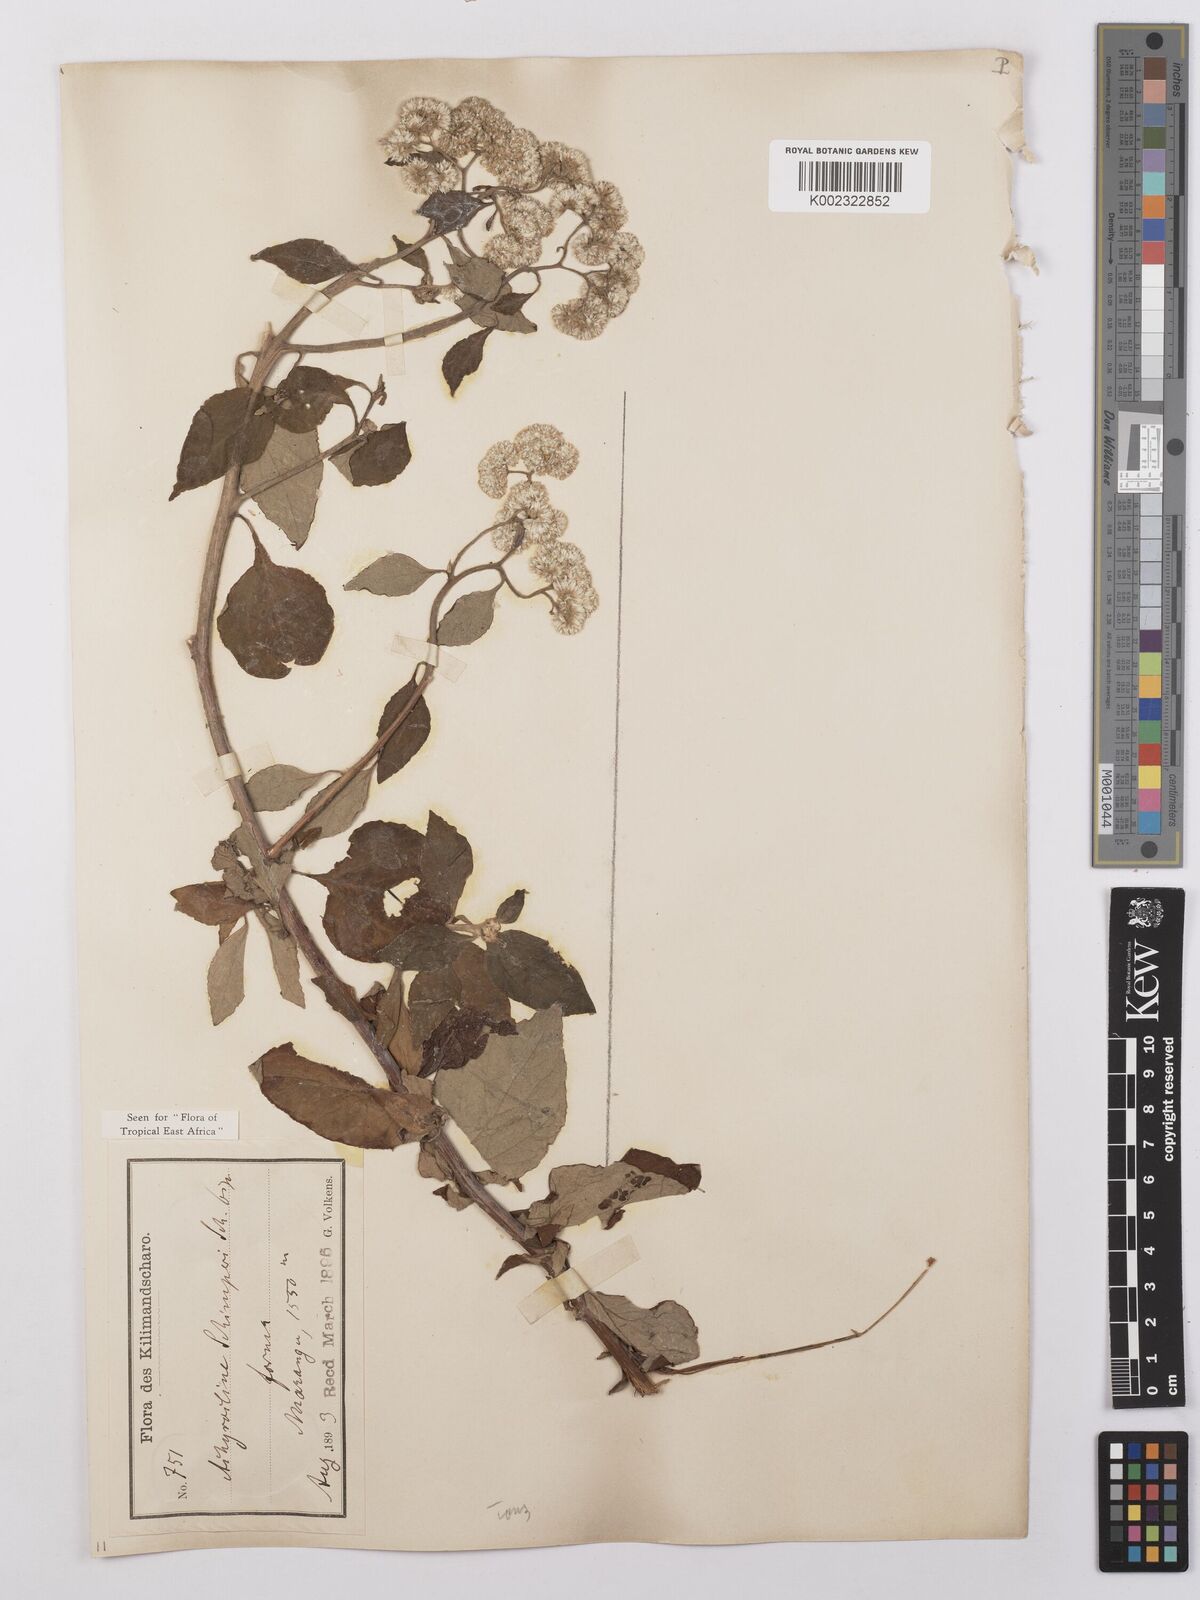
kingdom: Plantae
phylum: Tracheophyta
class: Magnoliopsida
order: Asterales
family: Asteraceae
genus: Helichrysum
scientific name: Helichrysum schimperi
